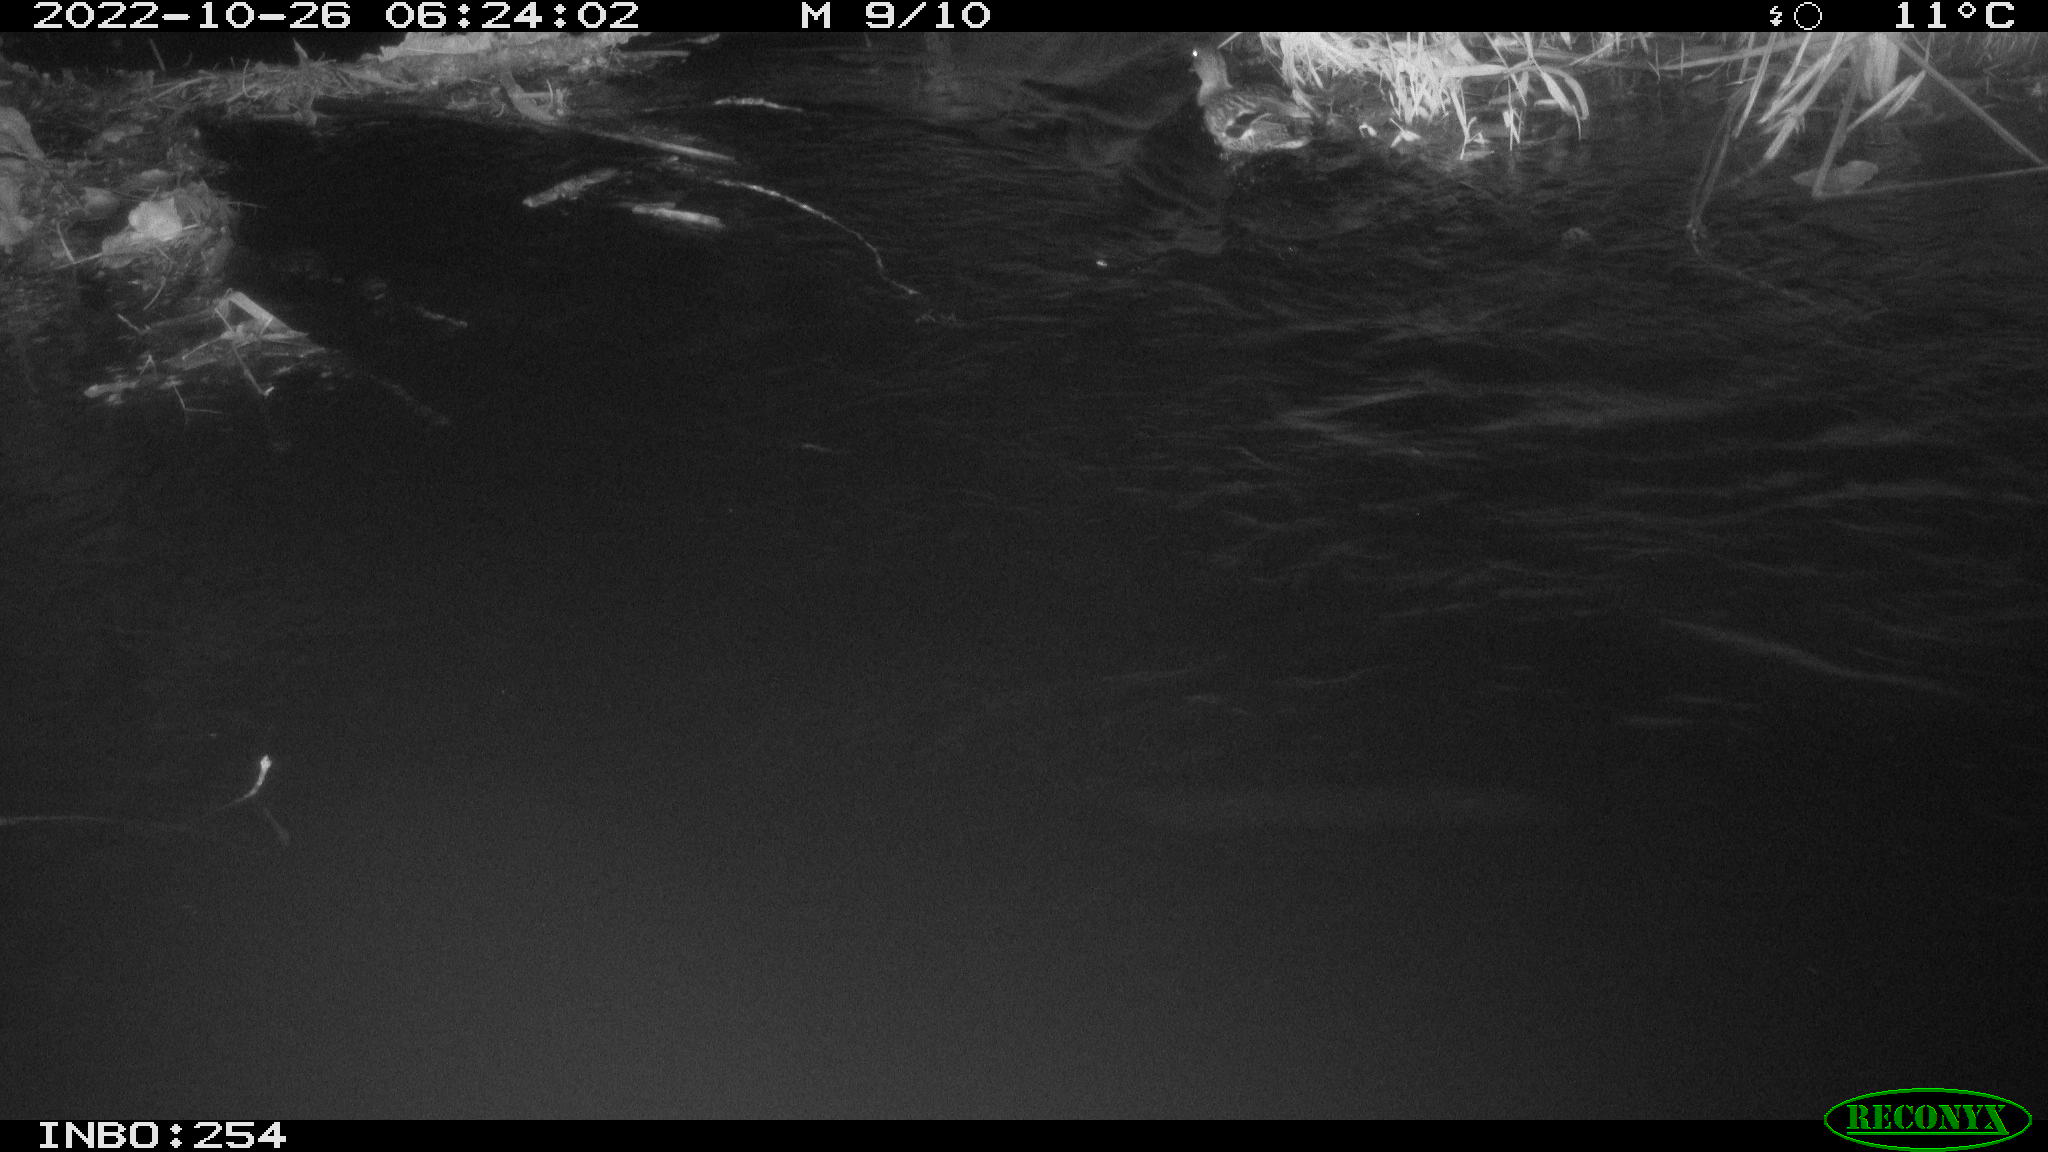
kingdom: Animalia
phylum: Chordata
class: Aves
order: Anseriformes
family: Anatidae
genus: Anas
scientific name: Anas
